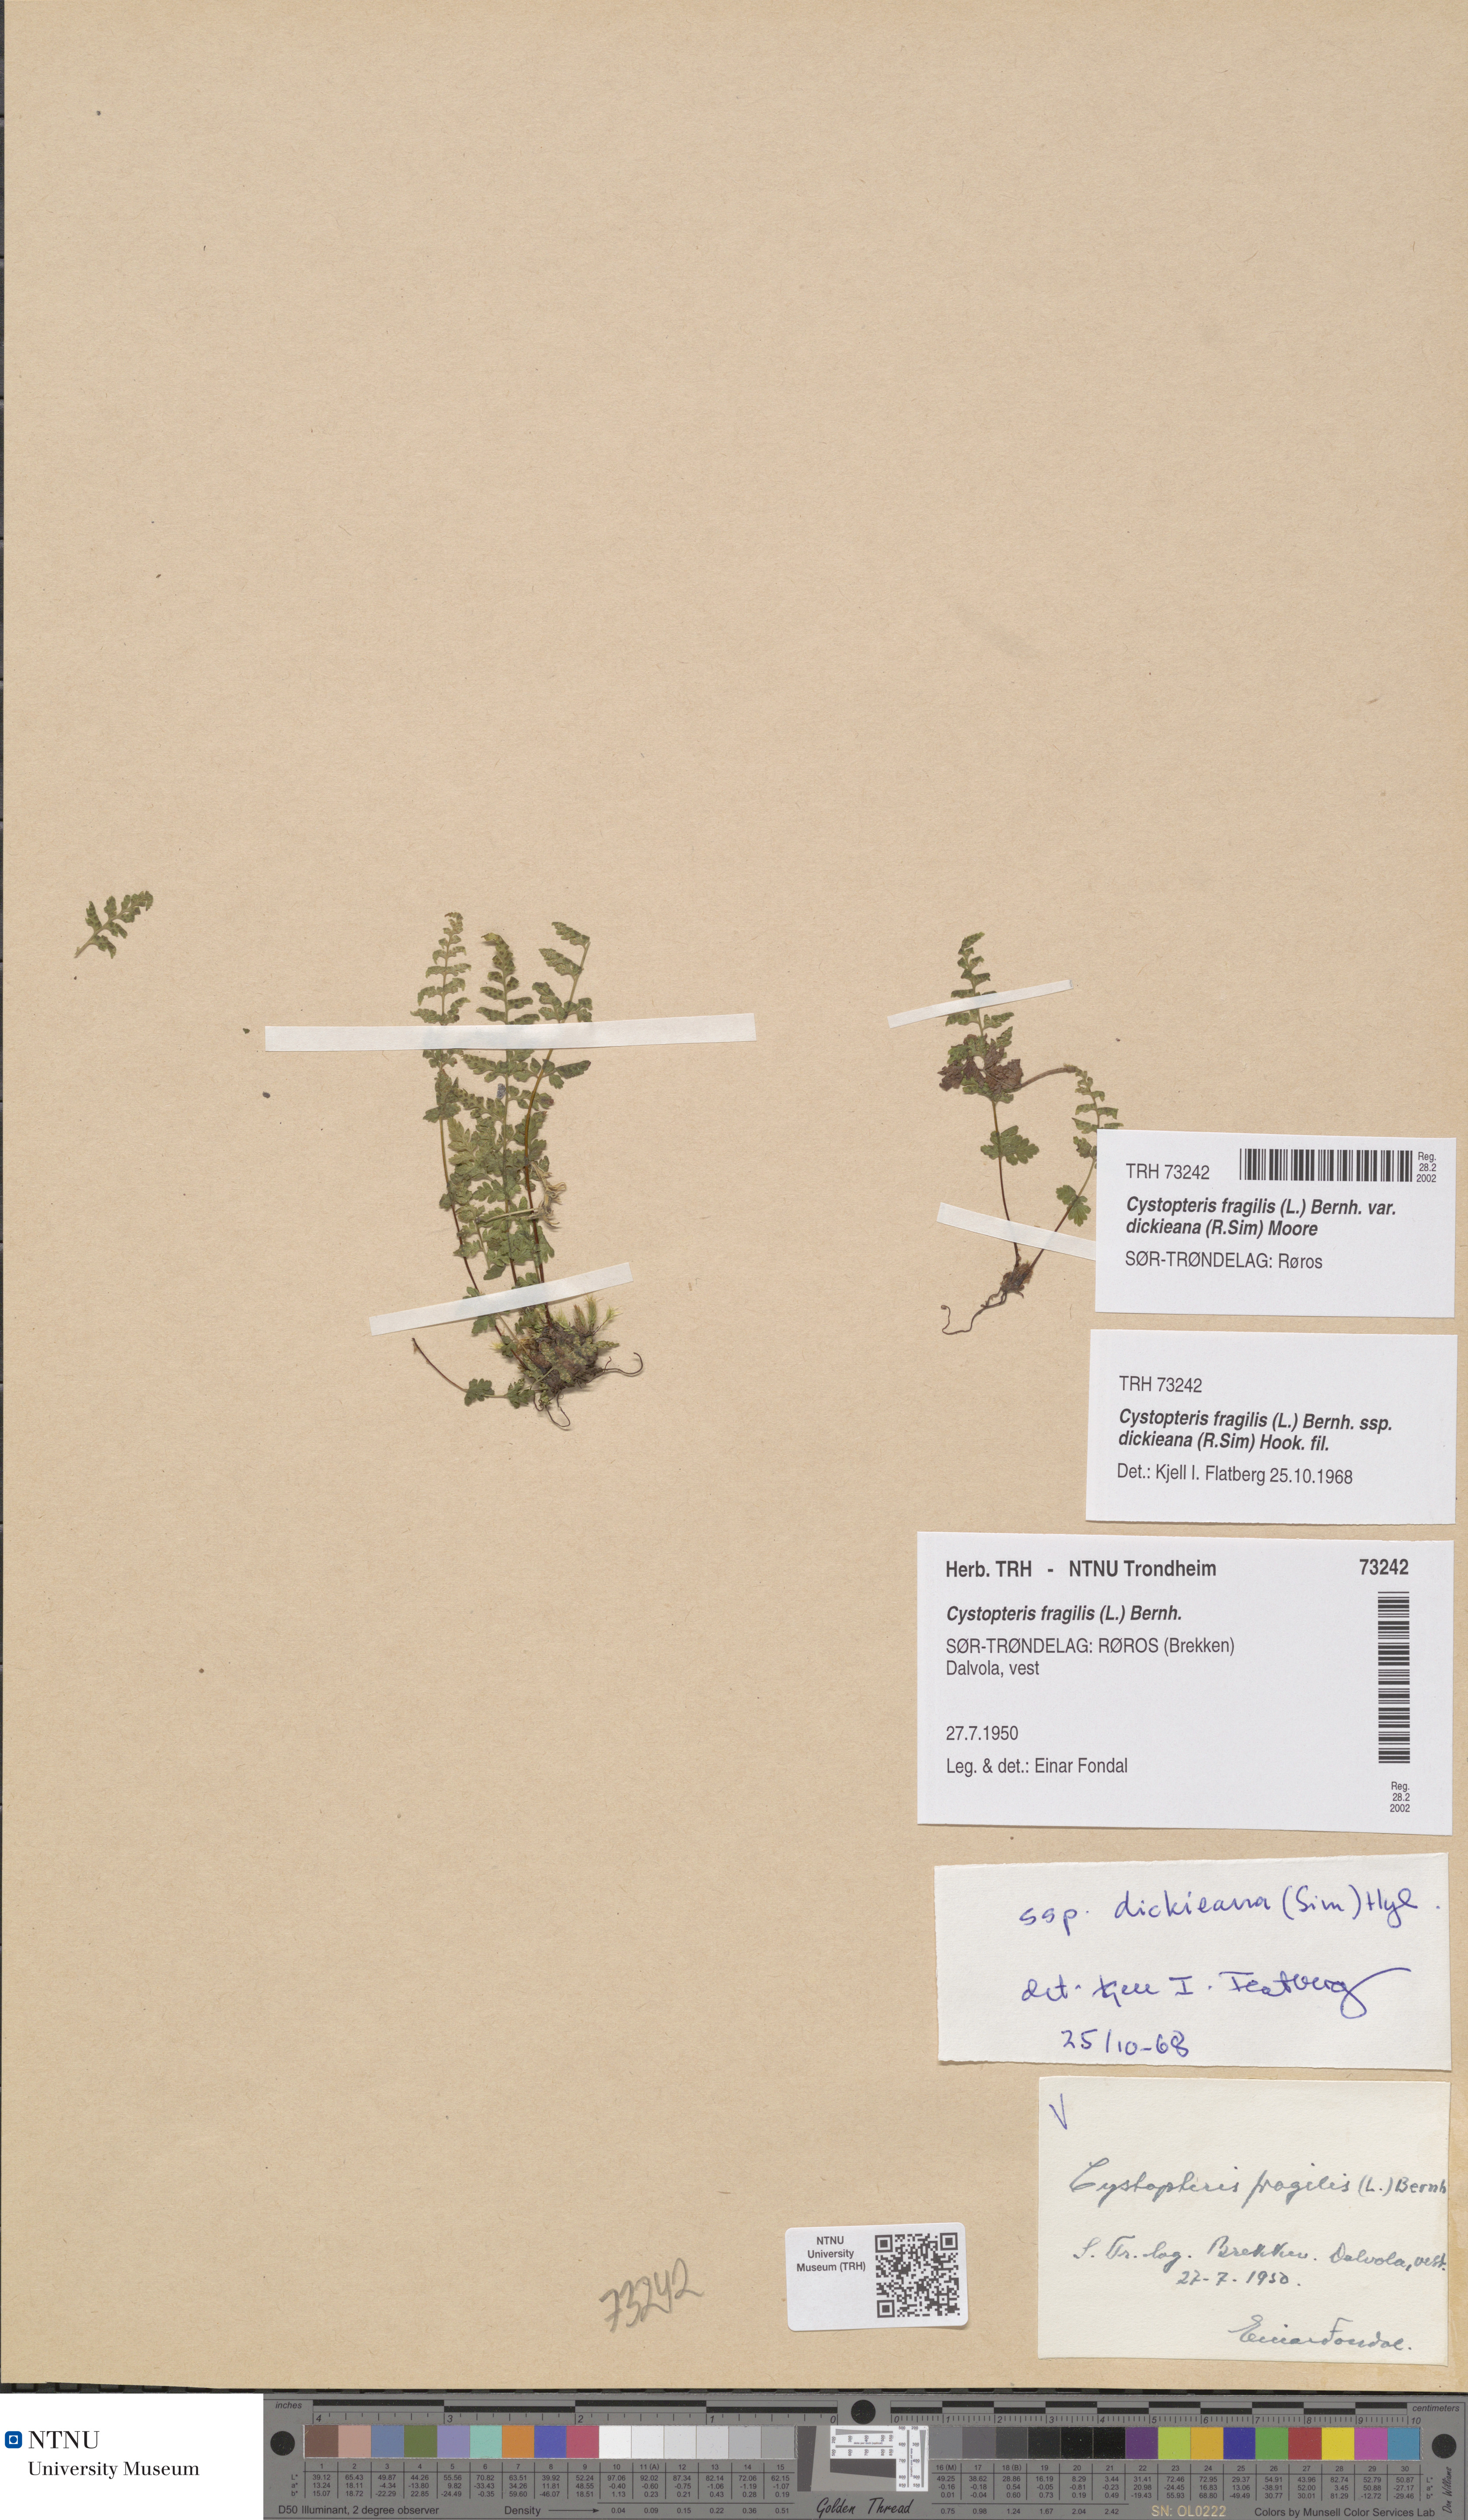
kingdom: Plantae
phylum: Tracheophyta
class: Polypodiopsida
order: Polypodiales
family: Cystopteridaceae
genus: Cystopteris
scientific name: Cystopteris dickieana
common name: Dickie's bladder-fern
